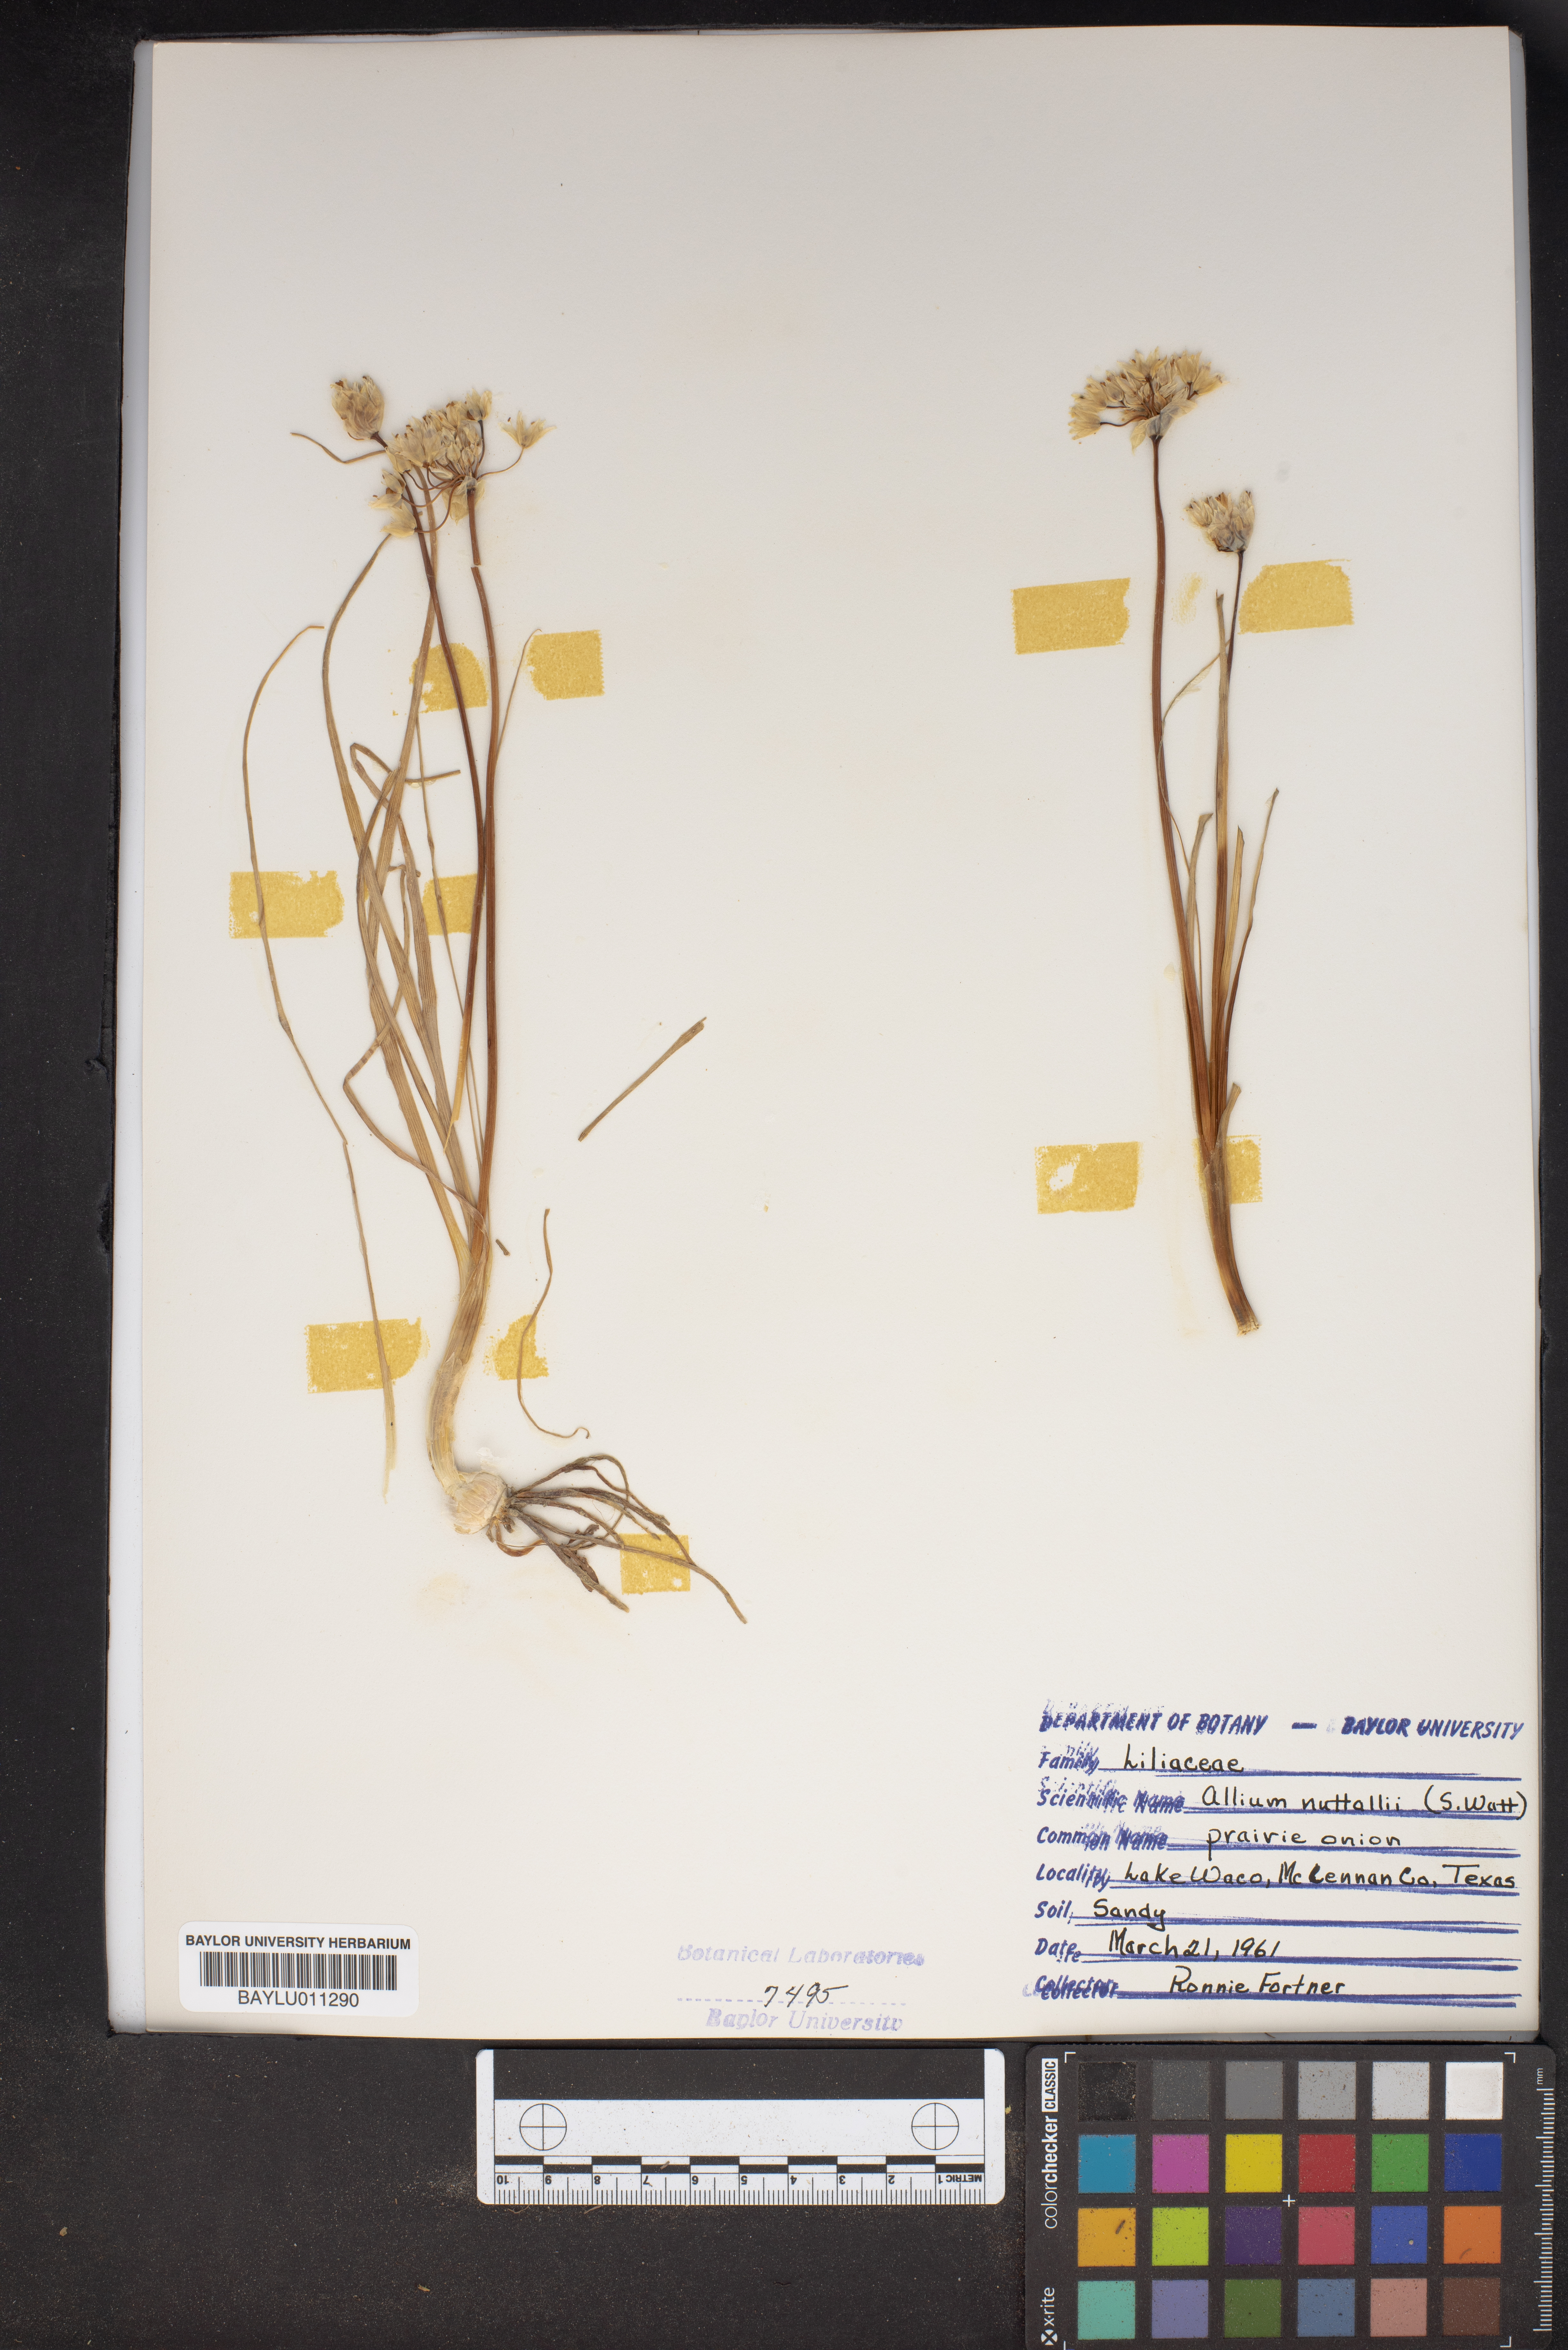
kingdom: Plantae
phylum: Tracheophyta
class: Liliopsida
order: Asparagales
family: Amaryllidaceae
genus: Allium
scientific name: Allium drummondii
